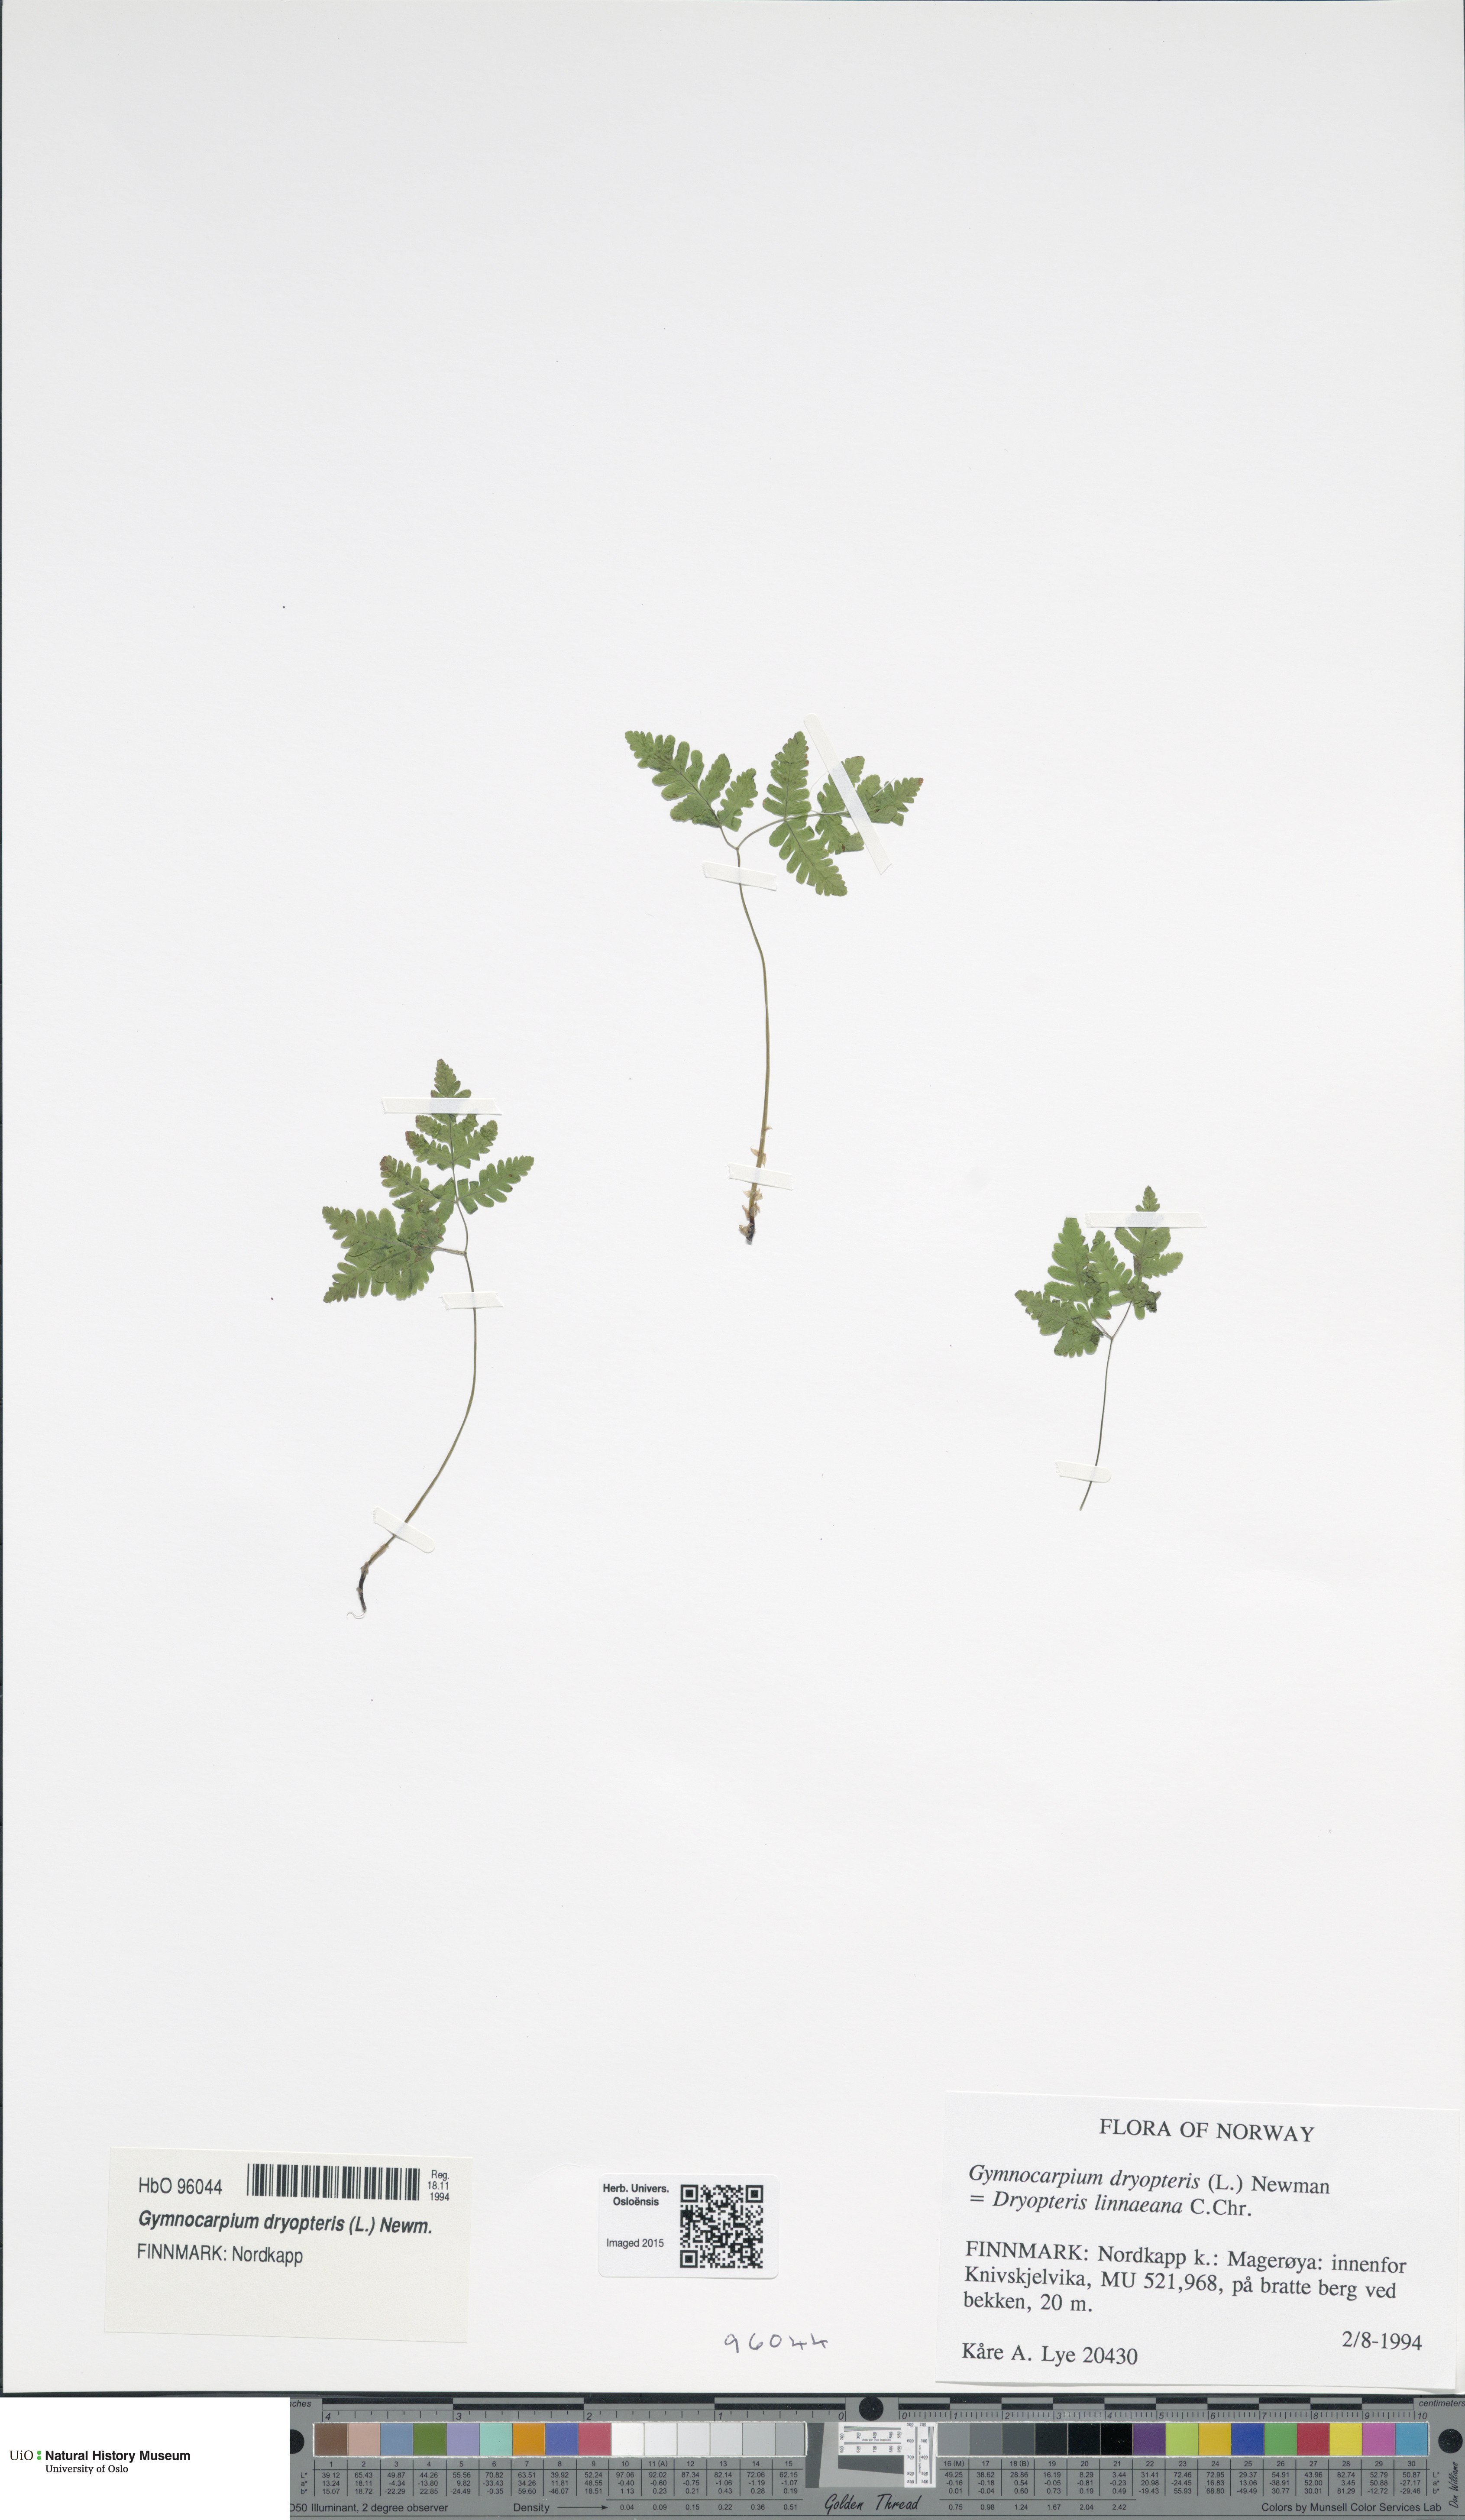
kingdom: Plantae
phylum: Tracheophyta
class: Polypodiopsida
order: Polypodiales
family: Cystopteridaceae
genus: Gymnocarpium
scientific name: Gymnocarpium dryopteris
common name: Oak fern
